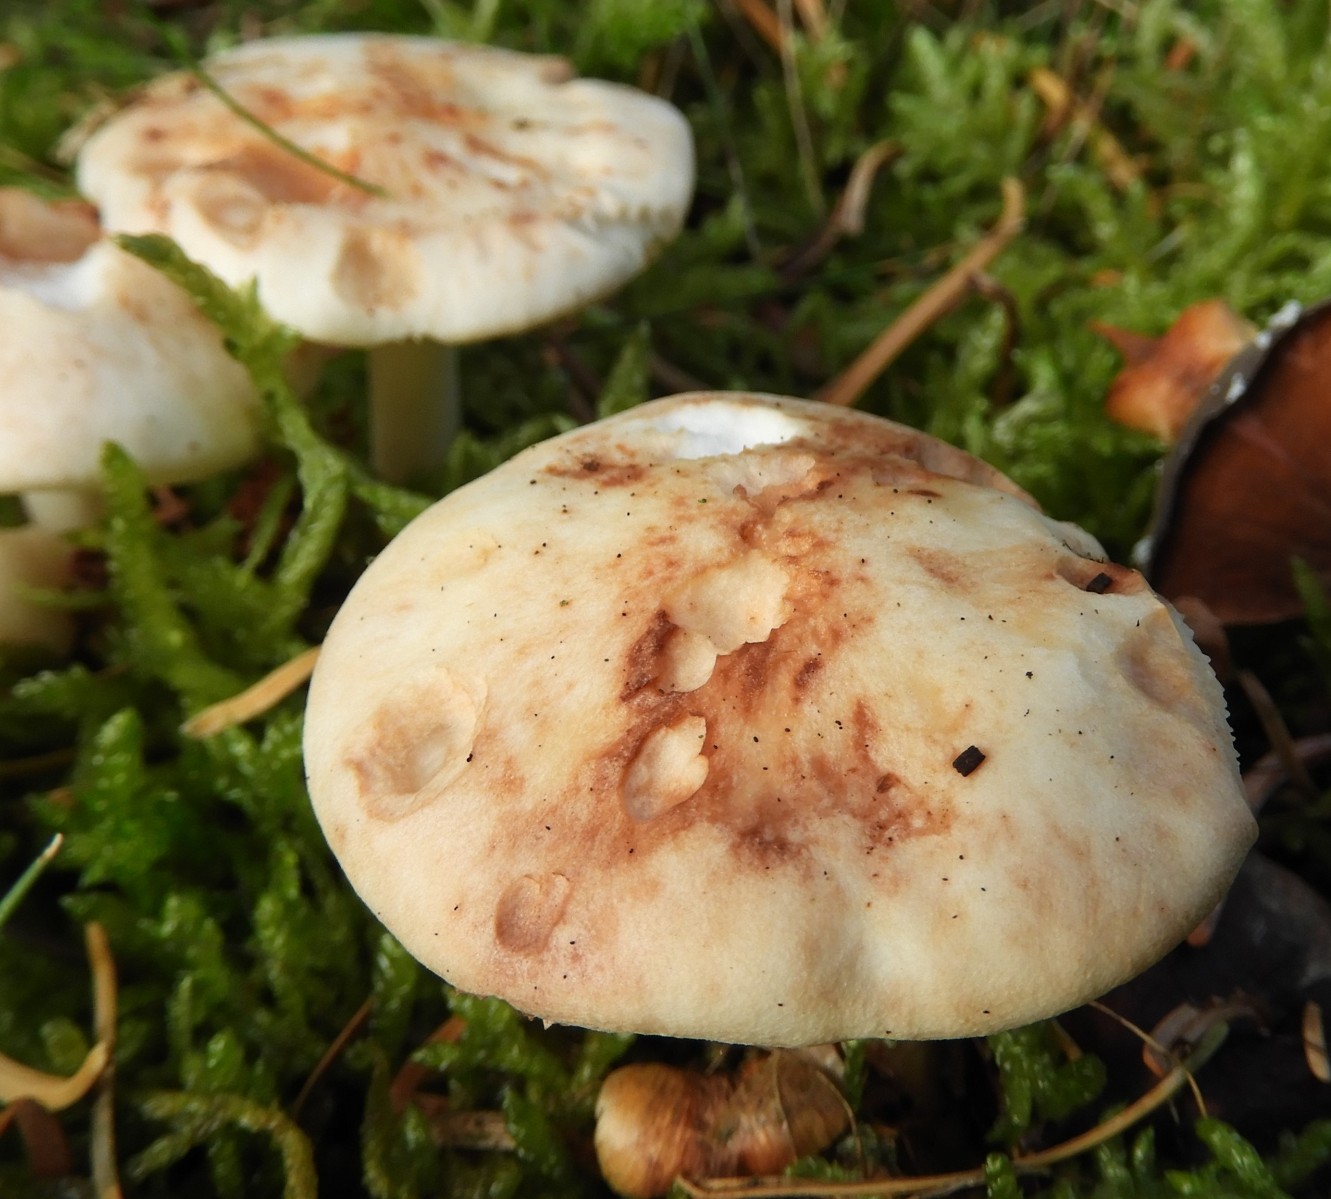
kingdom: Fungi
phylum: Basidiomycota
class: Agaricomycetes
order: Agaricales
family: Omphalotaceae
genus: Rhodocollybia
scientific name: Rhodocollybia maculata
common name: plettet fladhat
